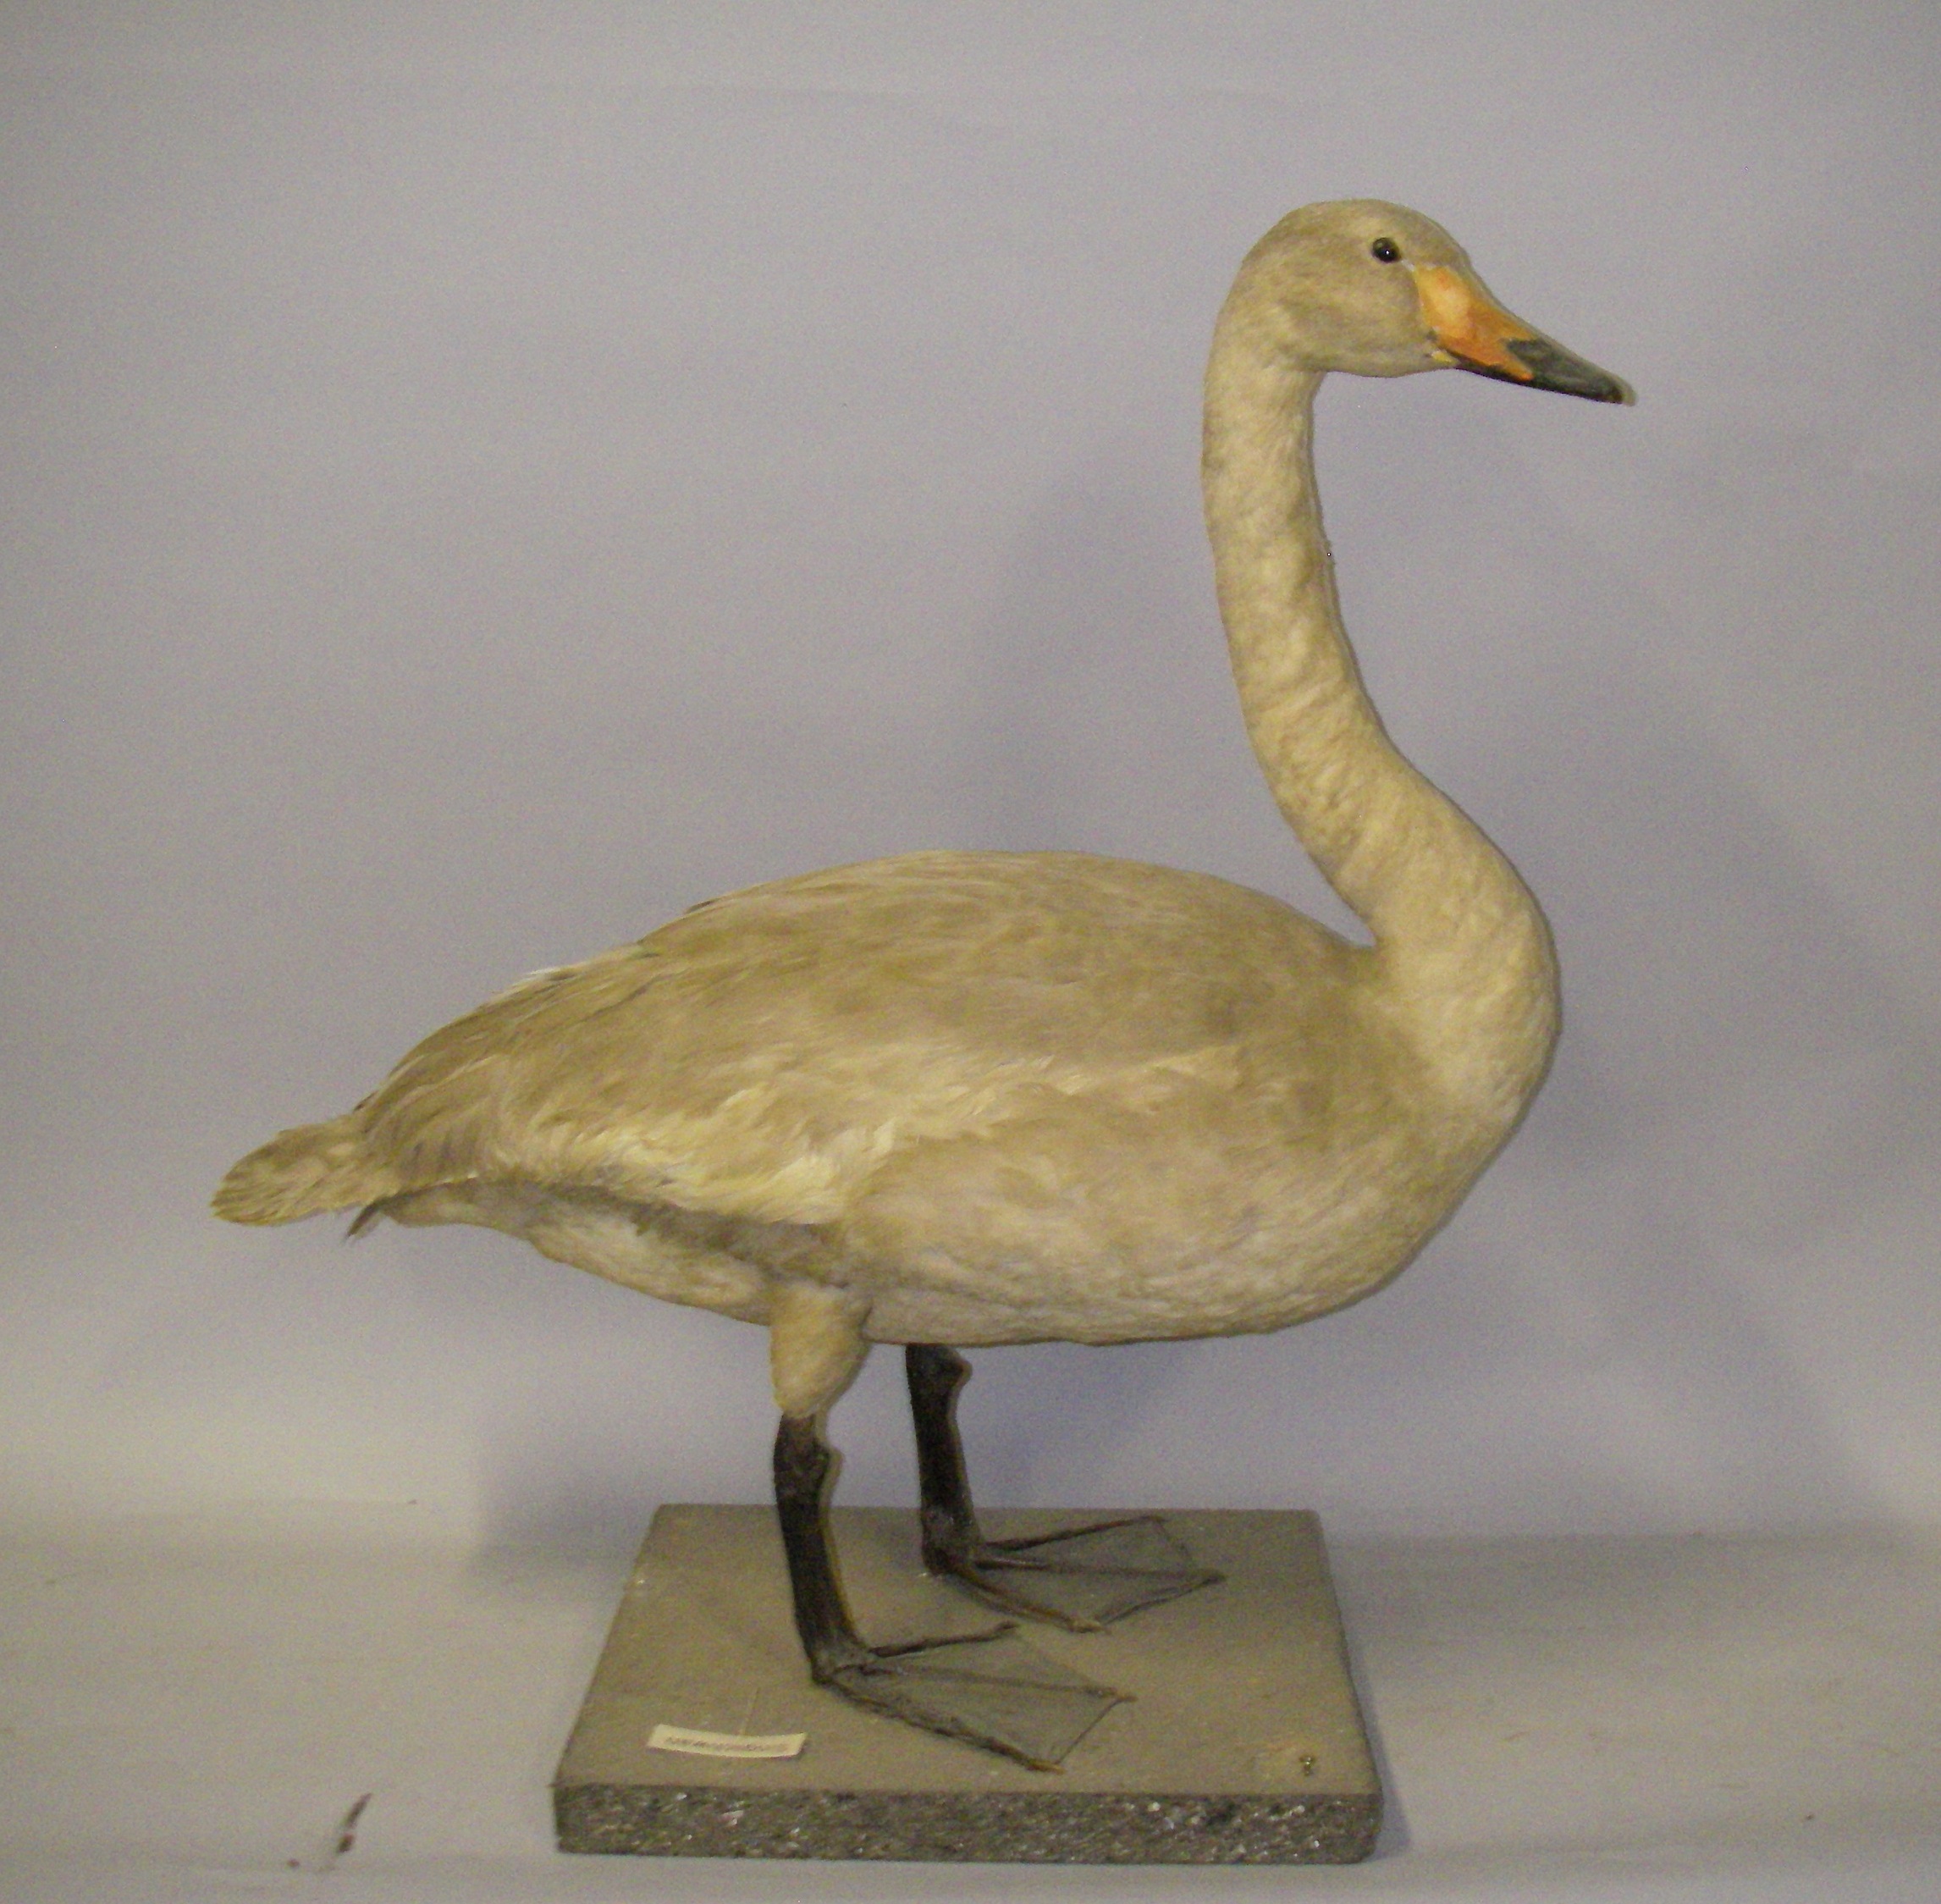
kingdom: Animalia
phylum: Chordata
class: Aves
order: Anseriformes
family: Anatidae
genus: Cygnus
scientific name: Cygnus cygnus
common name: Whooper swan
